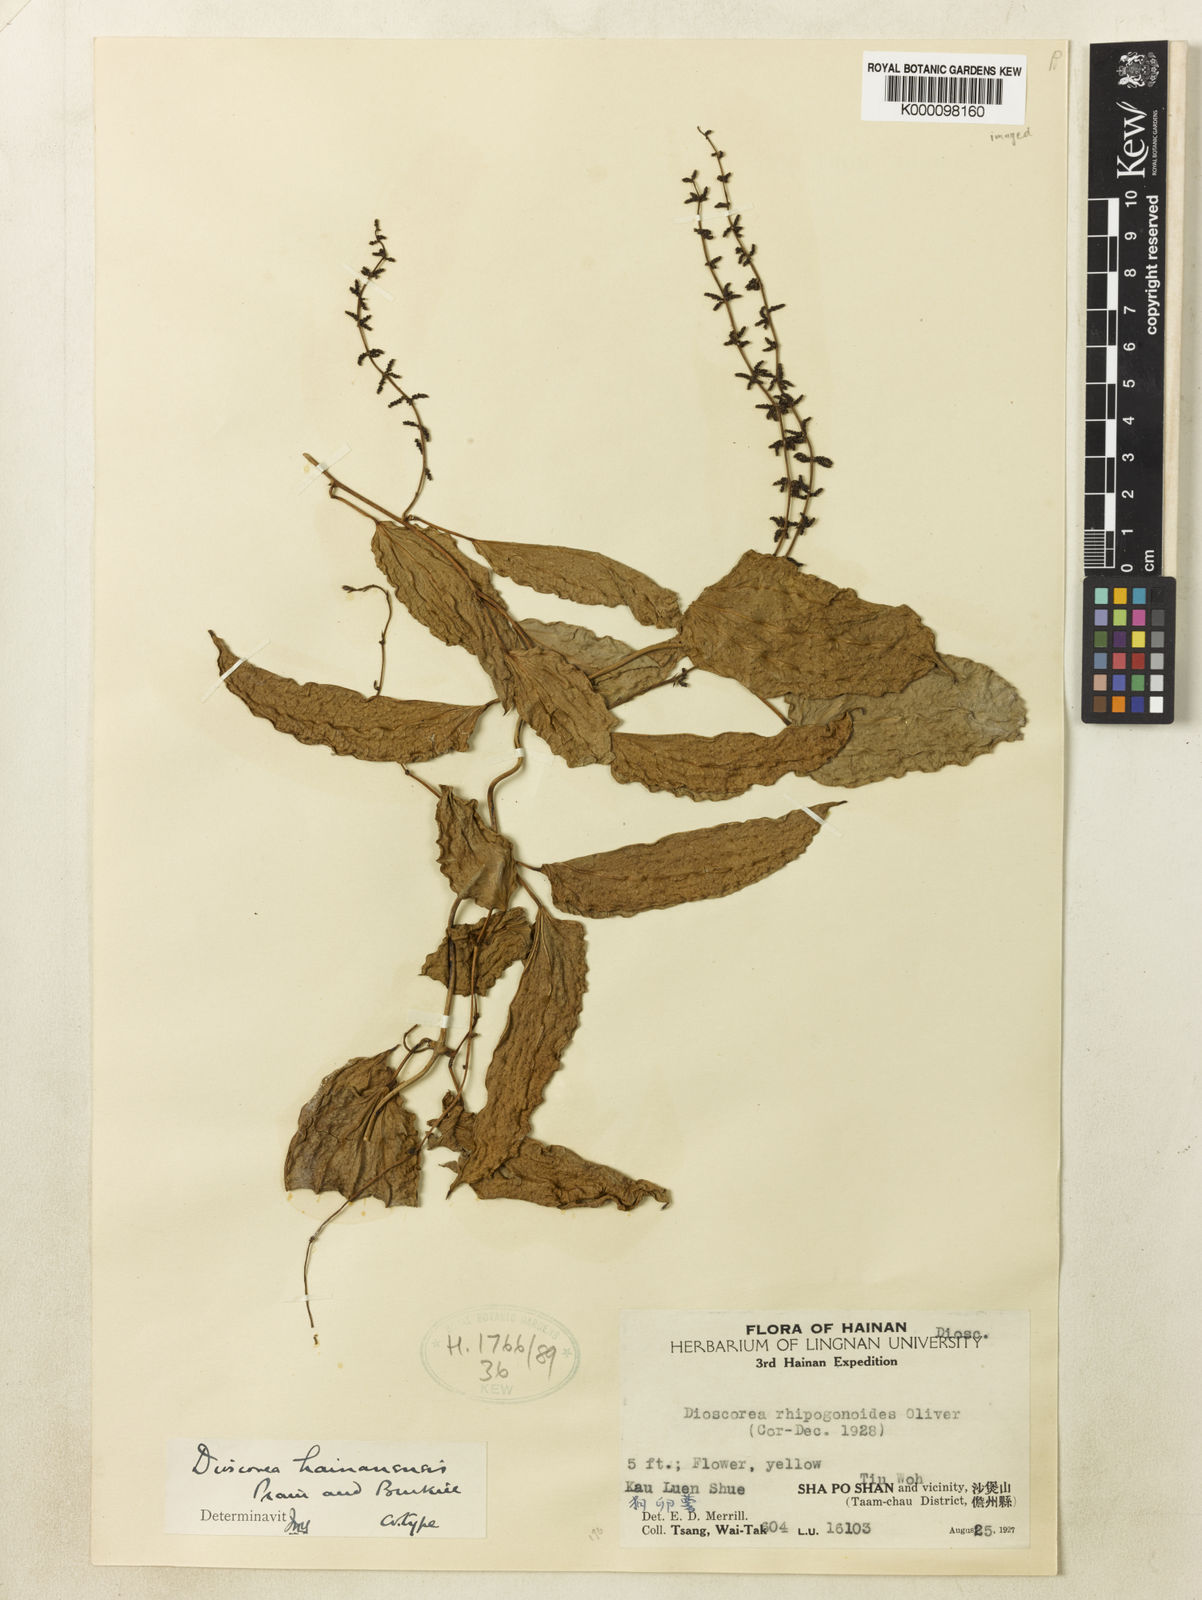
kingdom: Plantae
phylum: Tracheophyta
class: Liliopsida
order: Dioscoreales
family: Dioscoreaceae
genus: Dioscorea
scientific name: Dioscorea fordii
